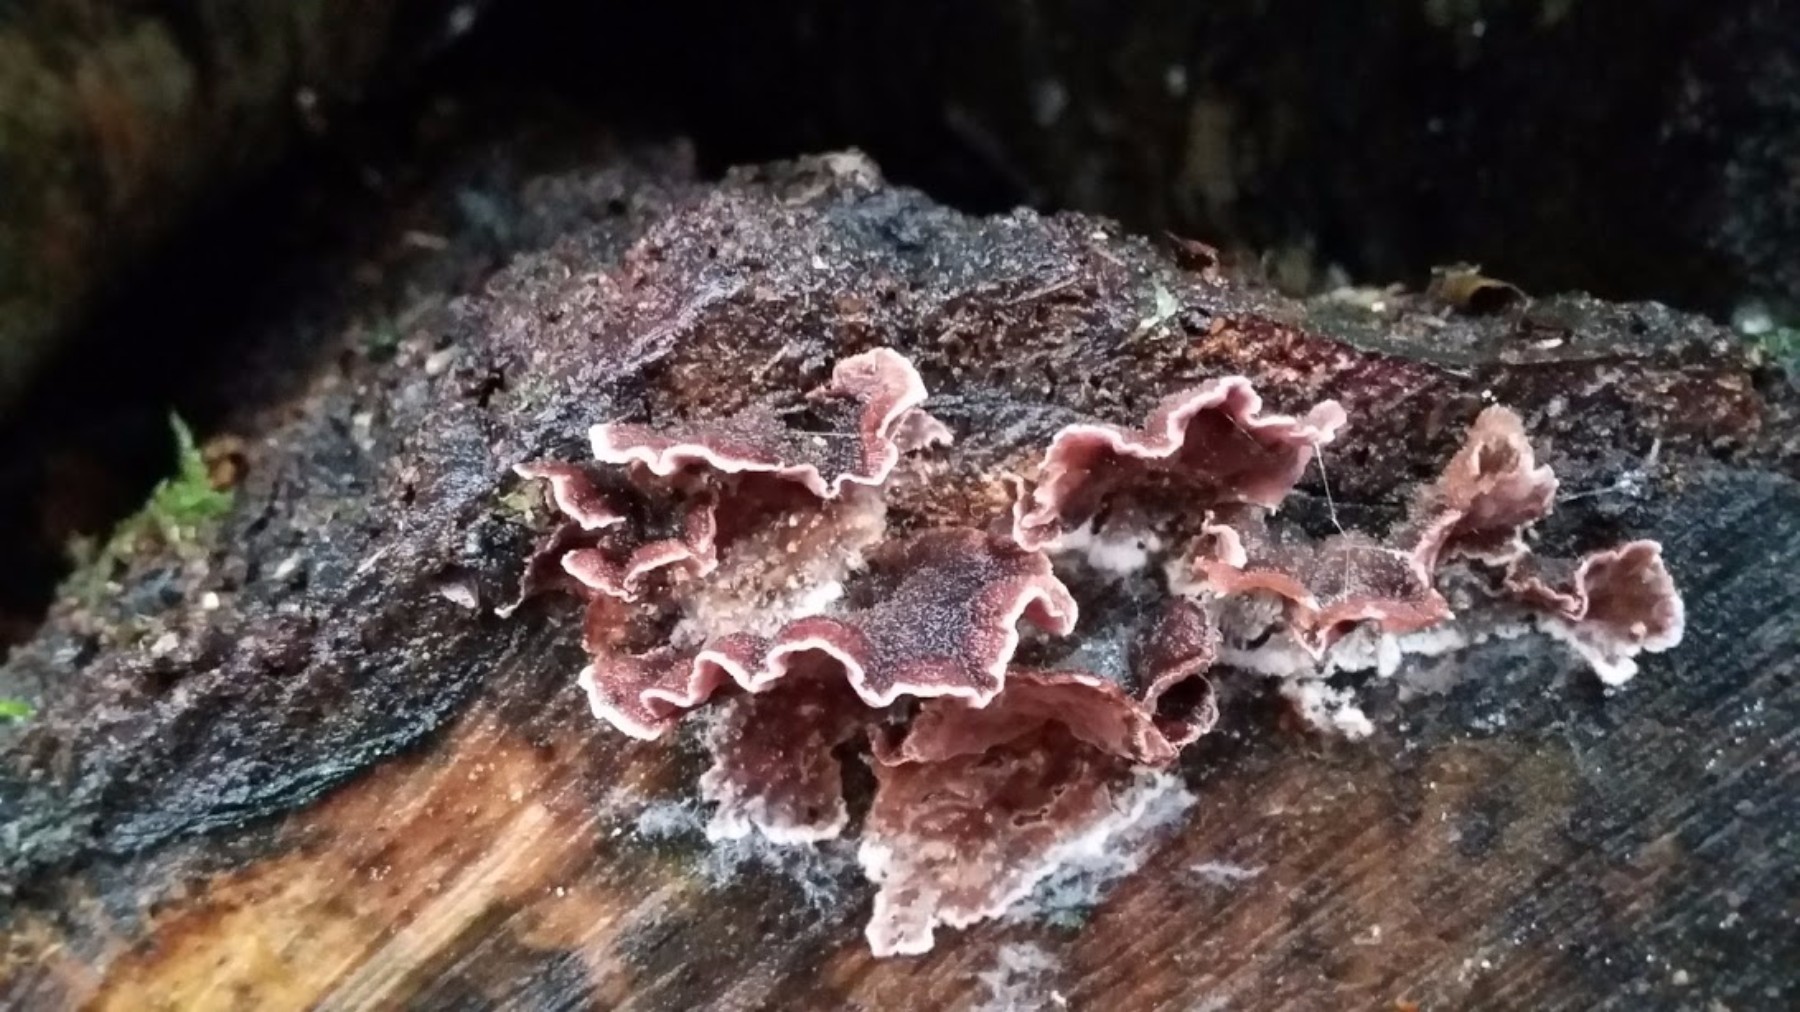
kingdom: Fungi
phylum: Basidiomycota
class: Agaricomycetes
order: Agaricales
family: Cyphellaceae
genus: Chondrostereum
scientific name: Chondrostereum purpureum
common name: purpurlædersvamp
